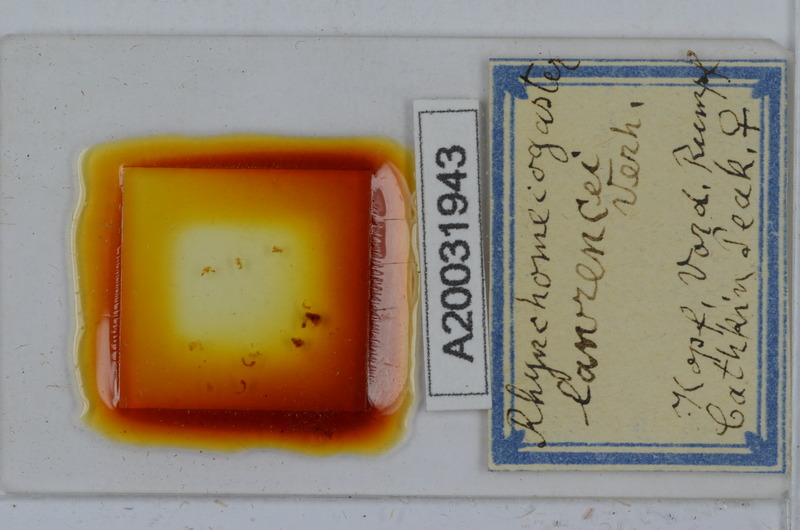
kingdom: Animalia
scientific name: Animalia
